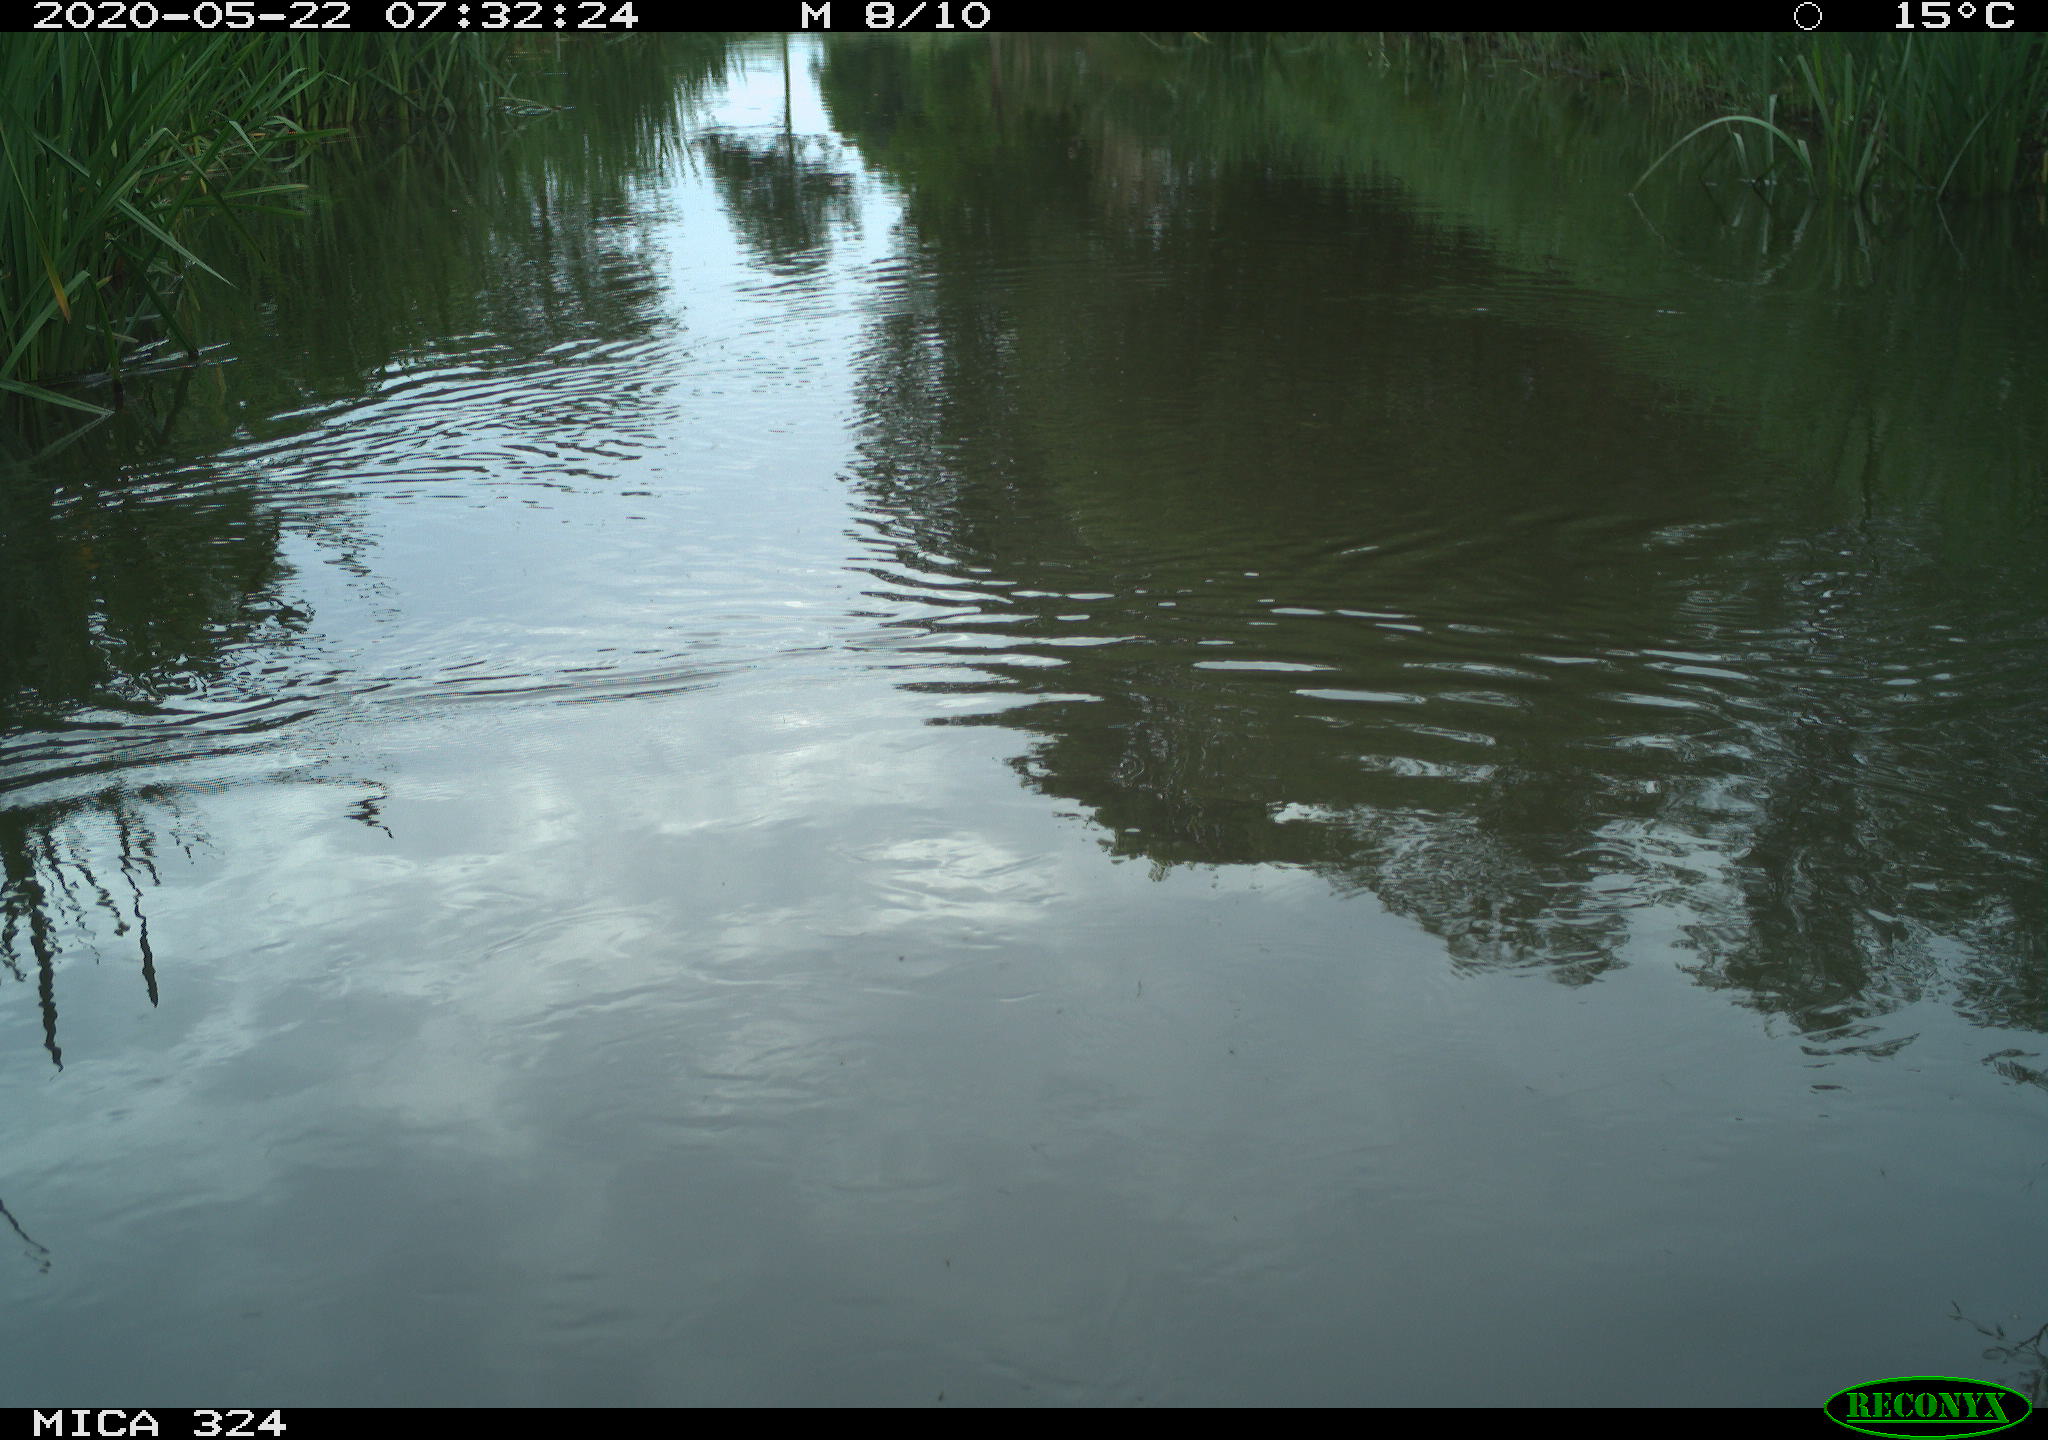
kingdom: Animalia
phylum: Chordata
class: Aves
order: Gruiformes
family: Rallidae
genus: Gallinula
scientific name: Gallinula chloropus
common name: Common moorhen
